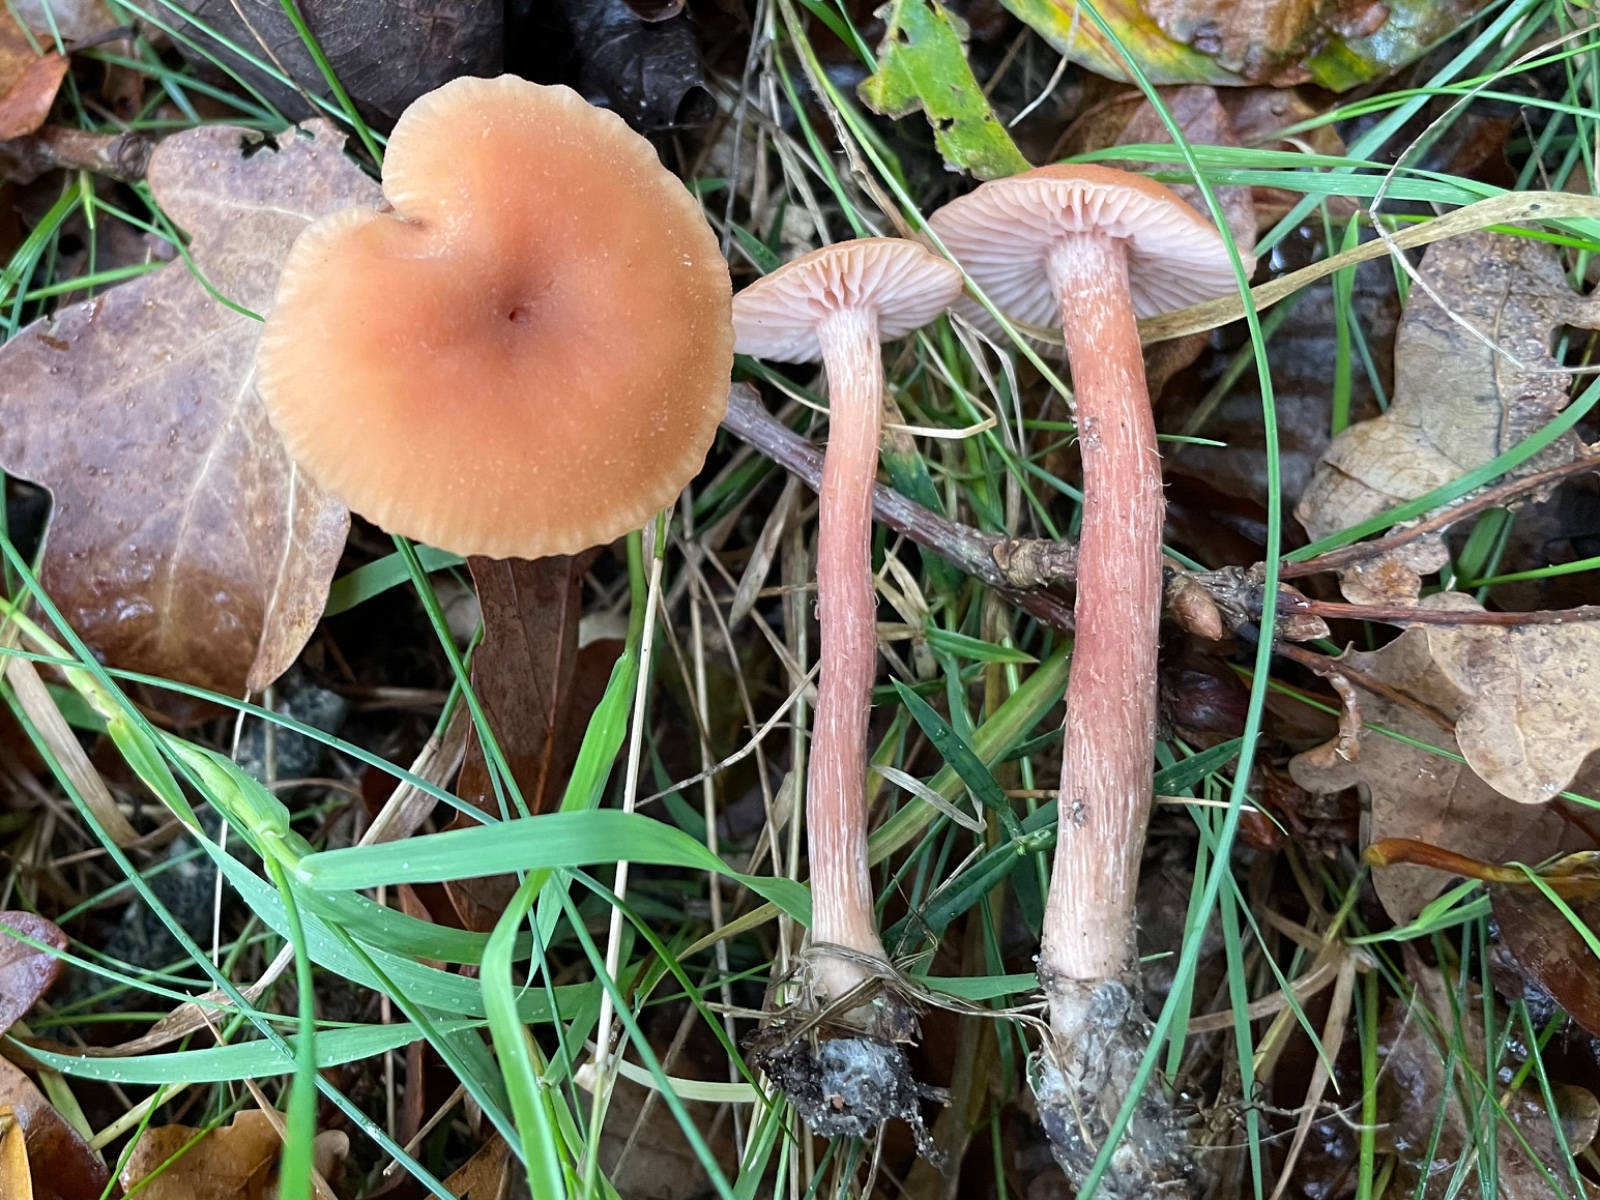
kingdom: Fungi
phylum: Basidiomycota
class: Agaricomycetes
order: Agaricales
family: Hydnangiaceae
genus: Laccaria
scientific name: Laccaria laccata
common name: rød ametysthat
